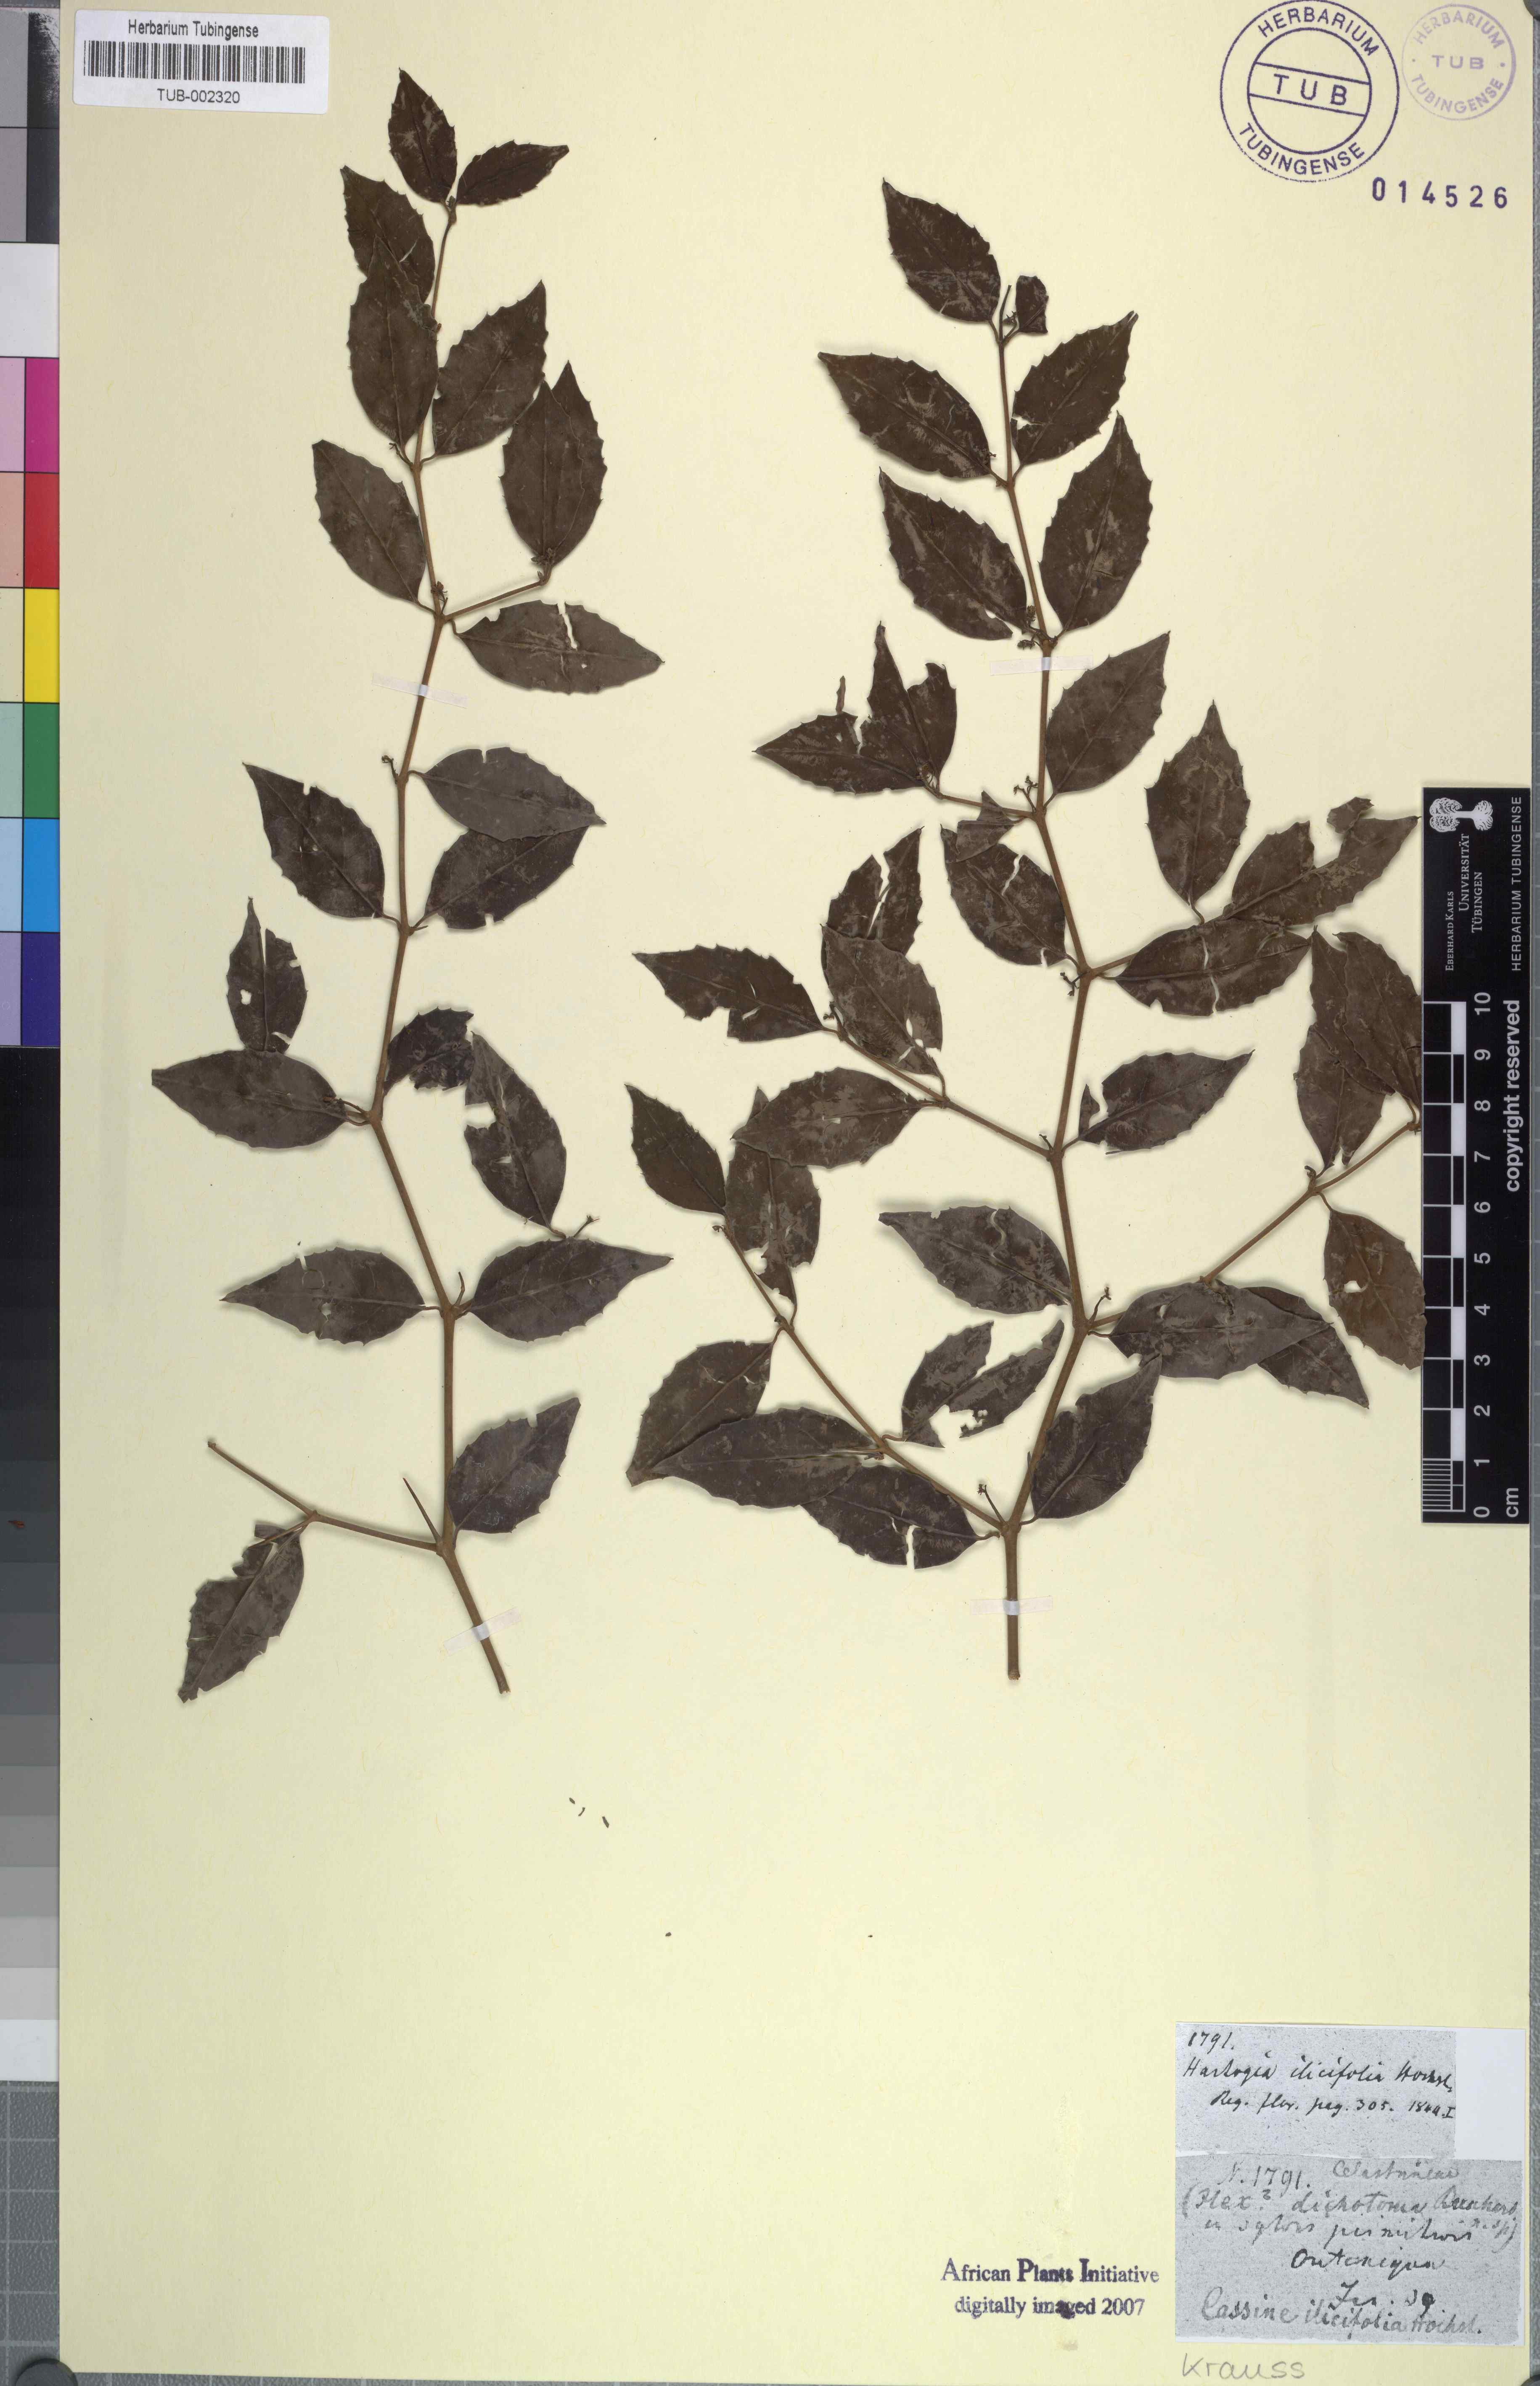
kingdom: Plantae
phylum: Tracheophyta
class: Magnoliopsida
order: Icacinales
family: Icacinaceae
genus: Cassinopsis
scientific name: Cassinopsis ilicifolia
